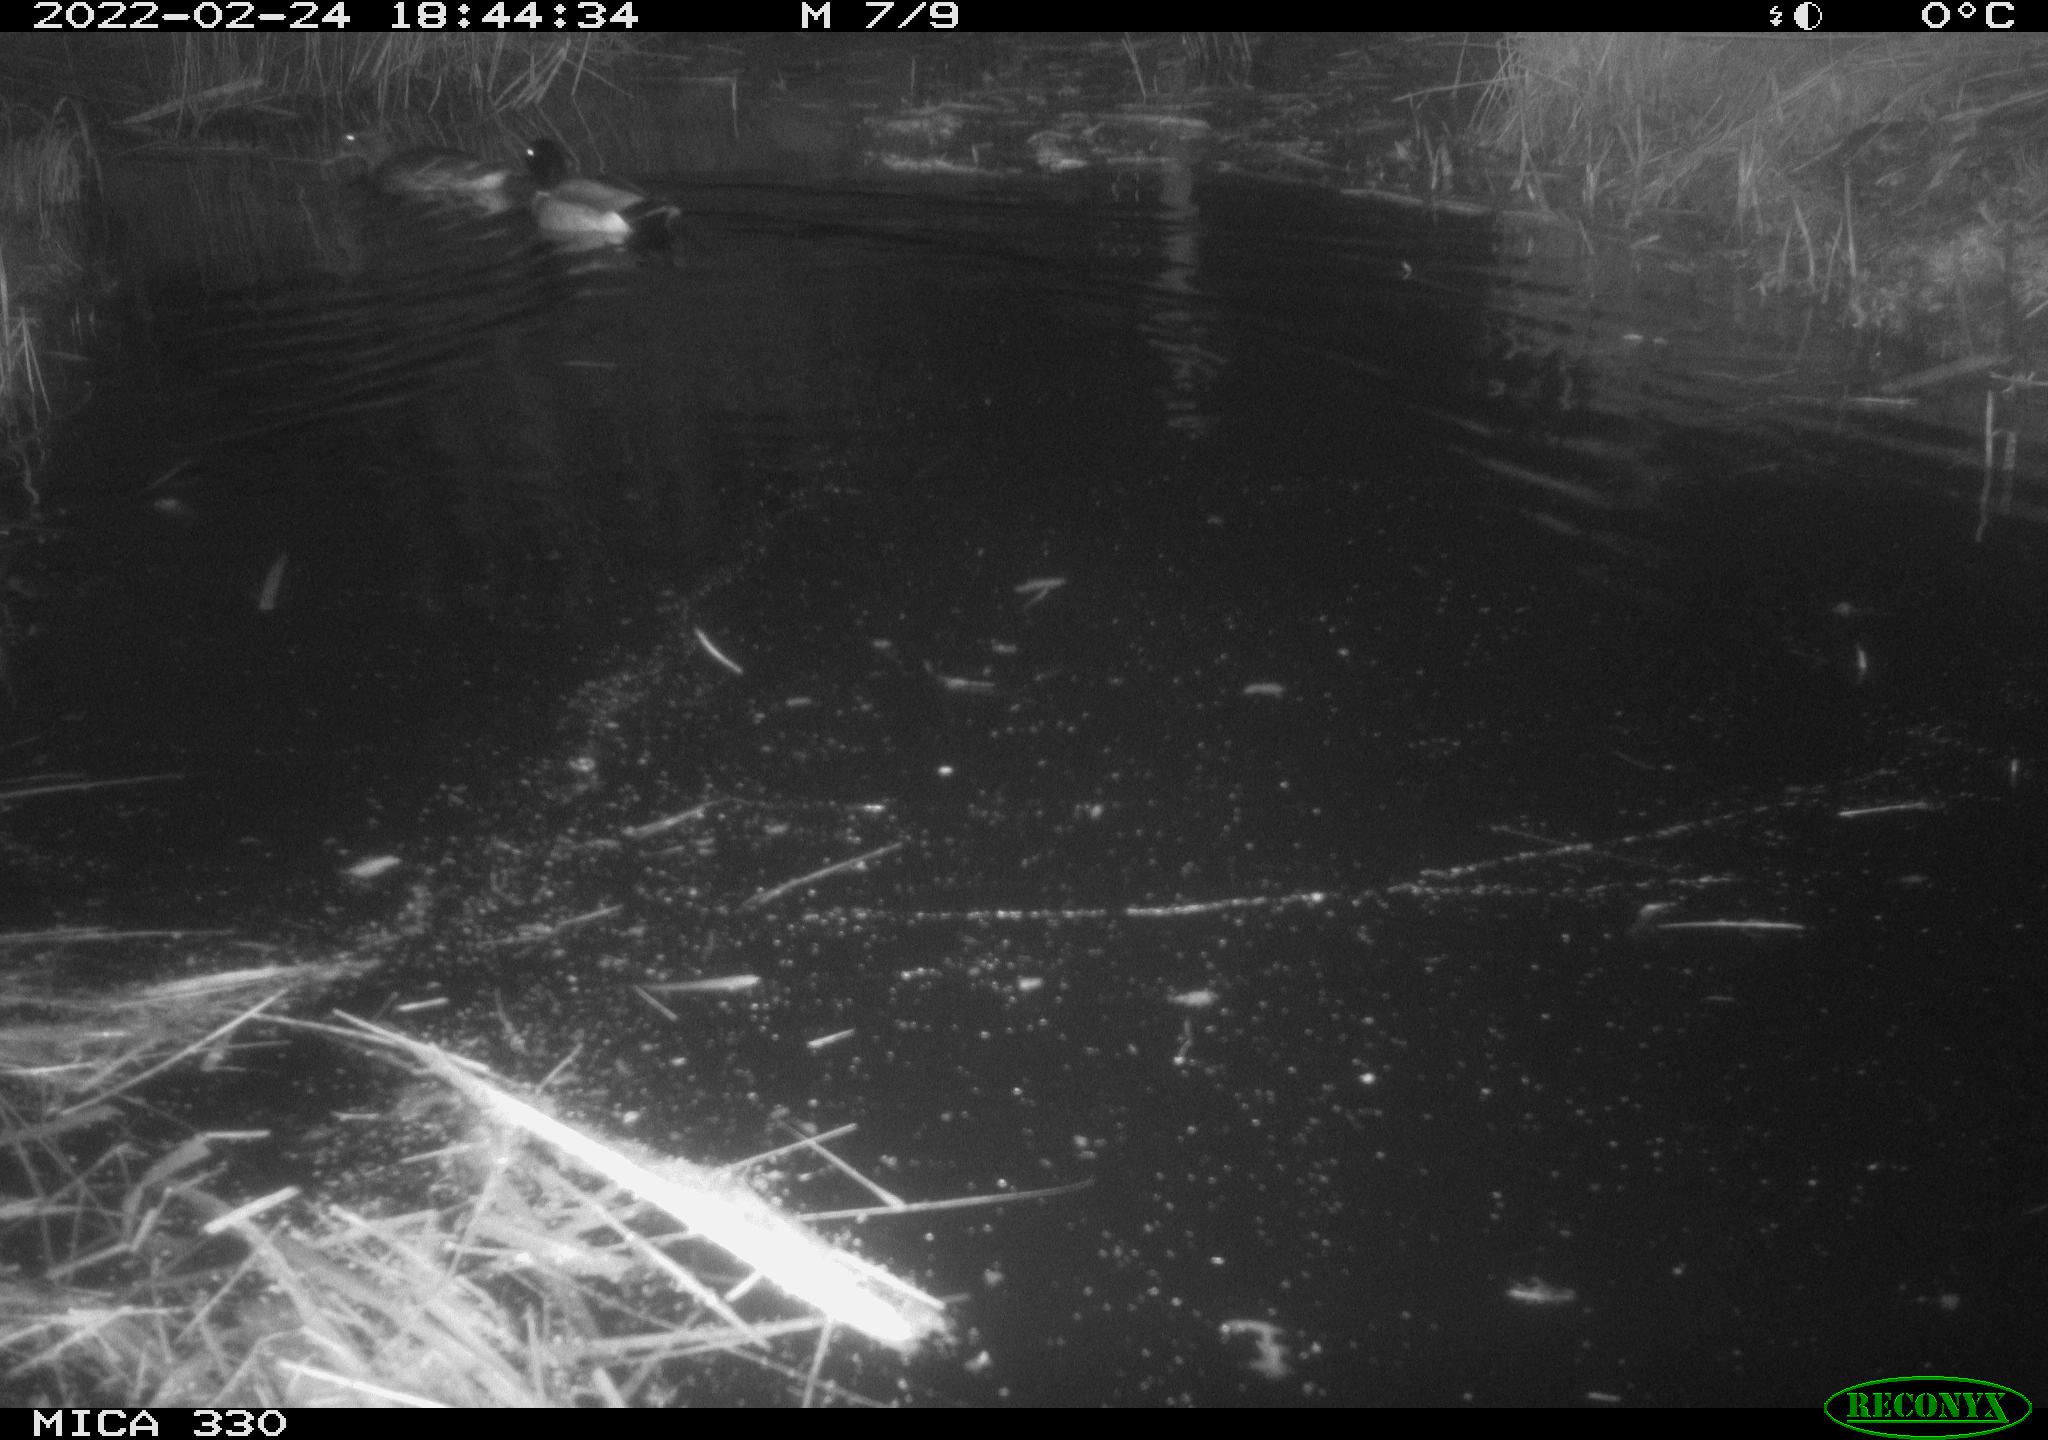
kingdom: Animalia
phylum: Chordata
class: Aves
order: Anseriformes
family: Anatidae
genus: Anas
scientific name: Anas platyrhynchos
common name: Mallard
